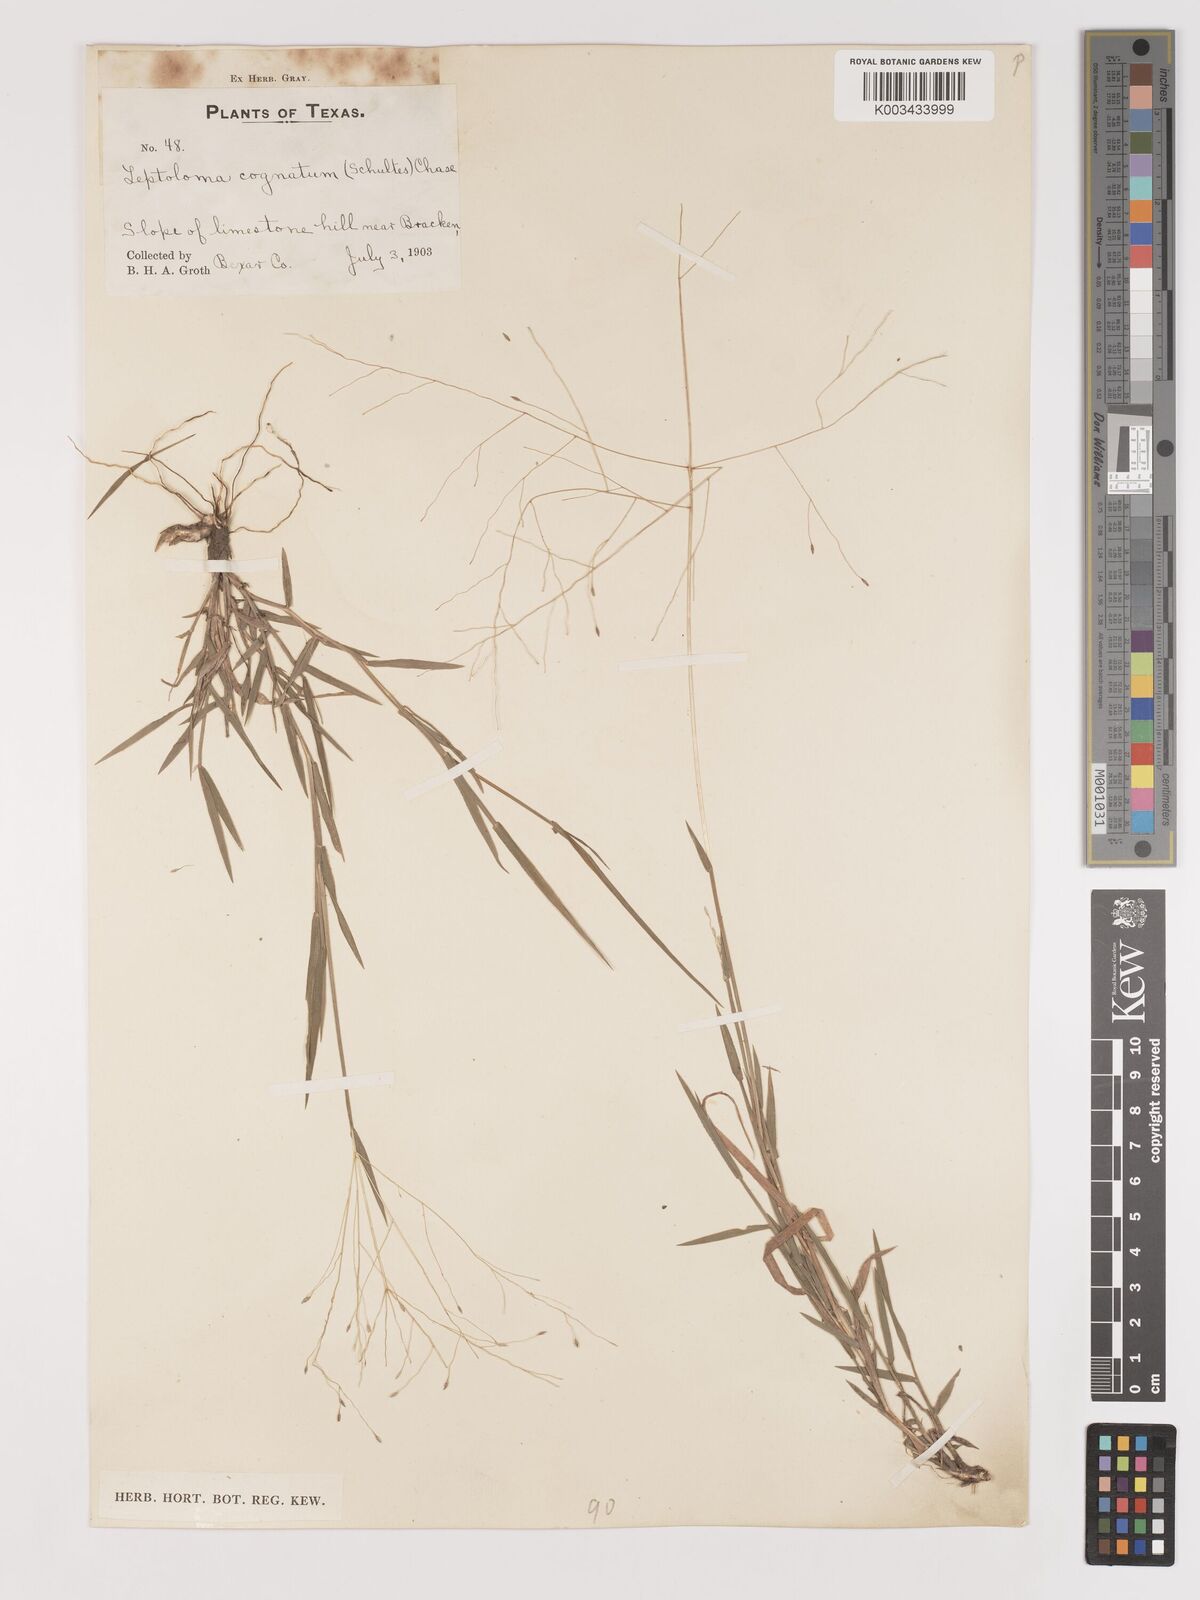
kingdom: Plantae
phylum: Tracheophyta
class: Liliopsida
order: Poales
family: Poaceae
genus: Digitaria
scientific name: Digitaria
